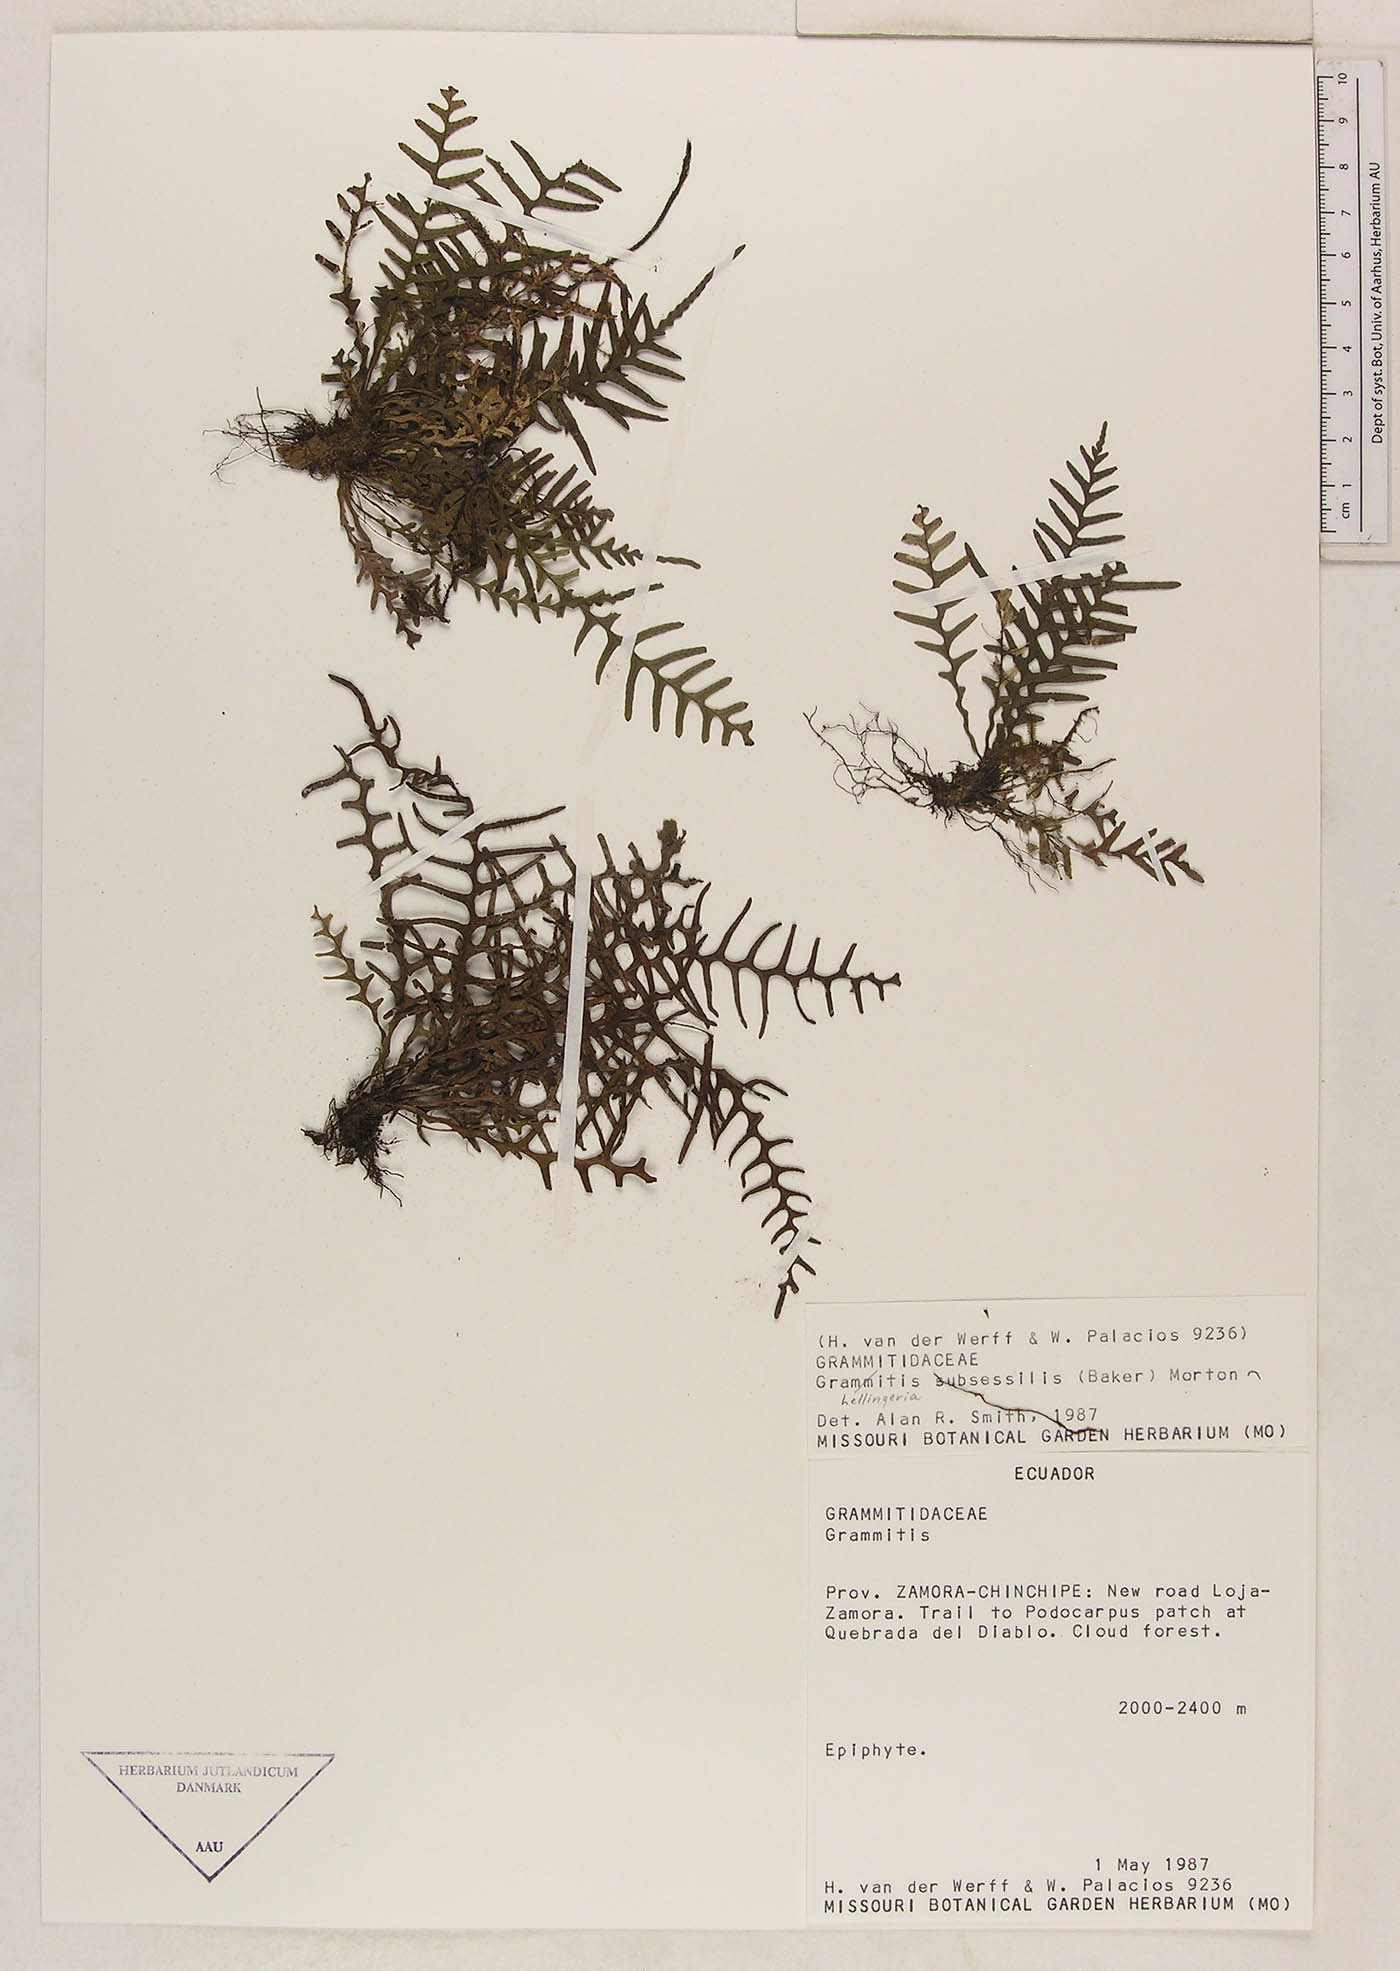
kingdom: Plantae
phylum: Tracheophyta
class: Polypodiopsida
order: Polypodiales
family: Polypodiaceae
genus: Lellingeria
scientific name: Lellingeria subsessilis
